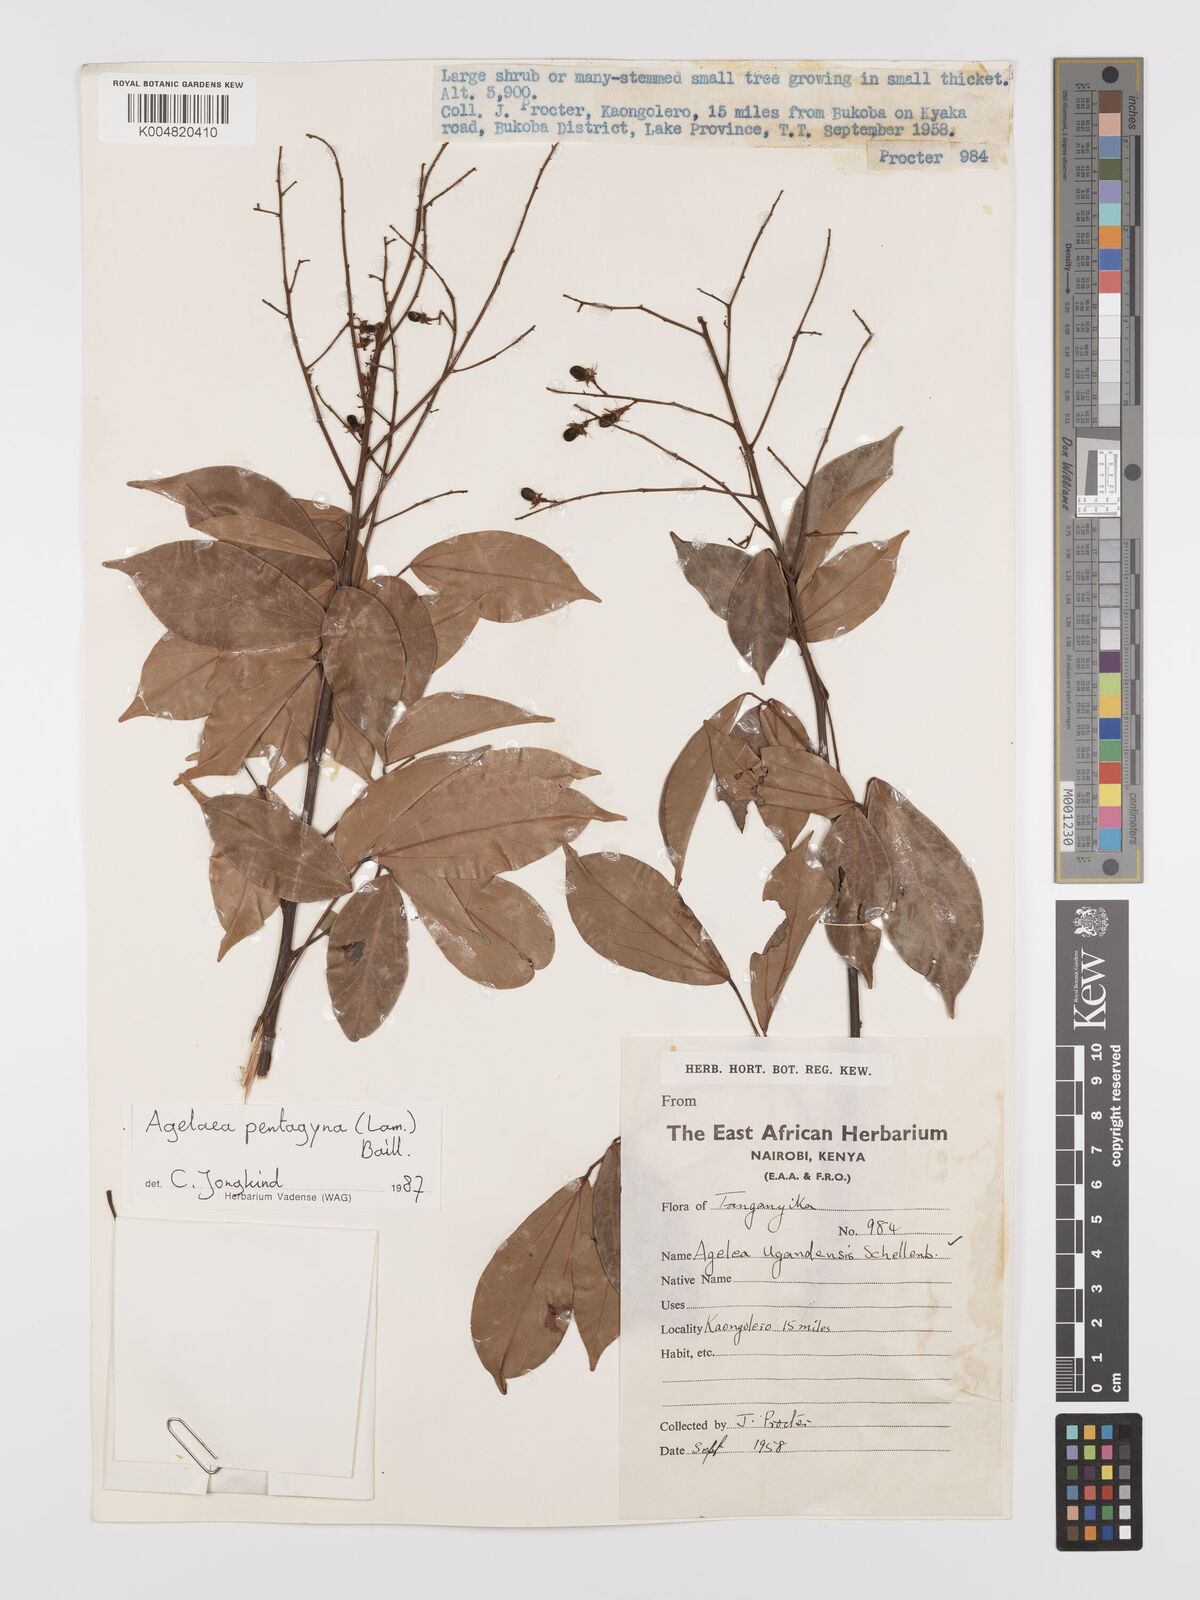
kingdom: Plantae
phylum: Tracheophyta
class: Magnoliopsida
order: Oxalidales
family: Connaraceae
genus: Agelaea
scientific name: Agelaea pentagyna
